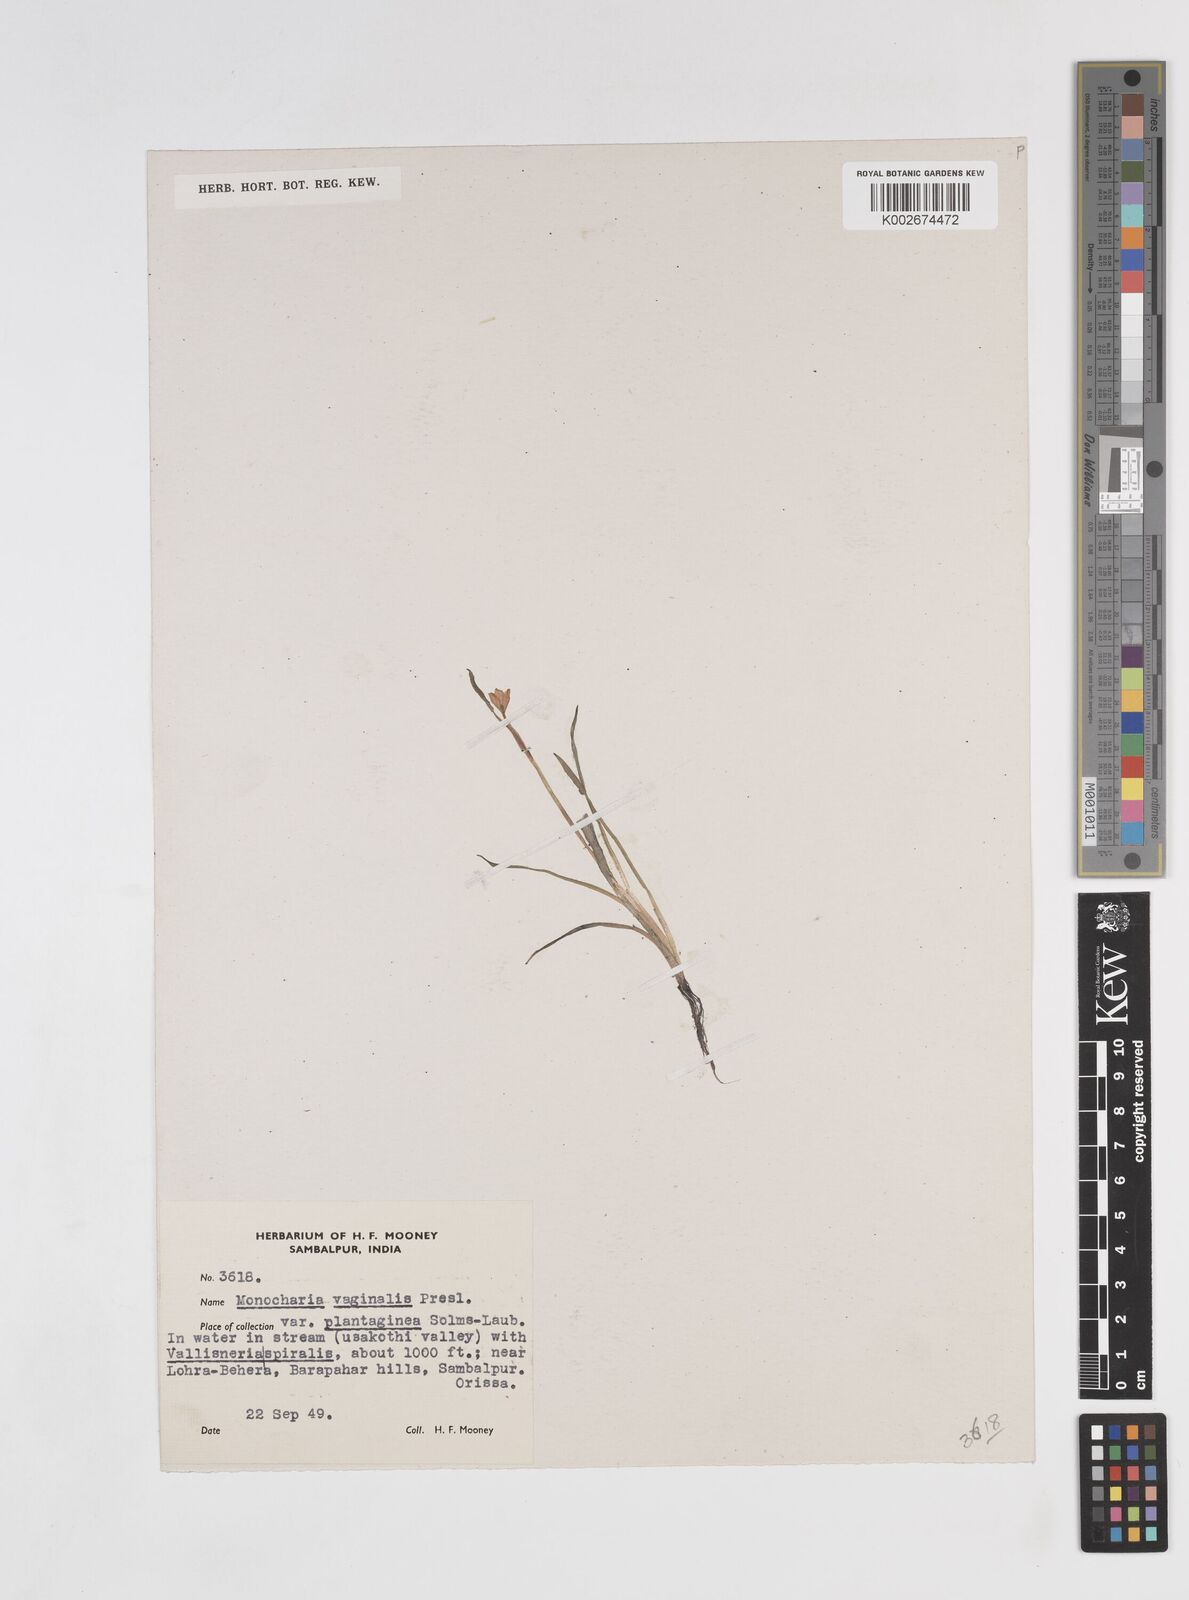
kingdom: Plantae
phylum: Tracheophyta
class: Liliopsida
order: Commelinales
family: Pontederiaceae
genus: Pontederia
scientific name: Pontederia vaginalis
